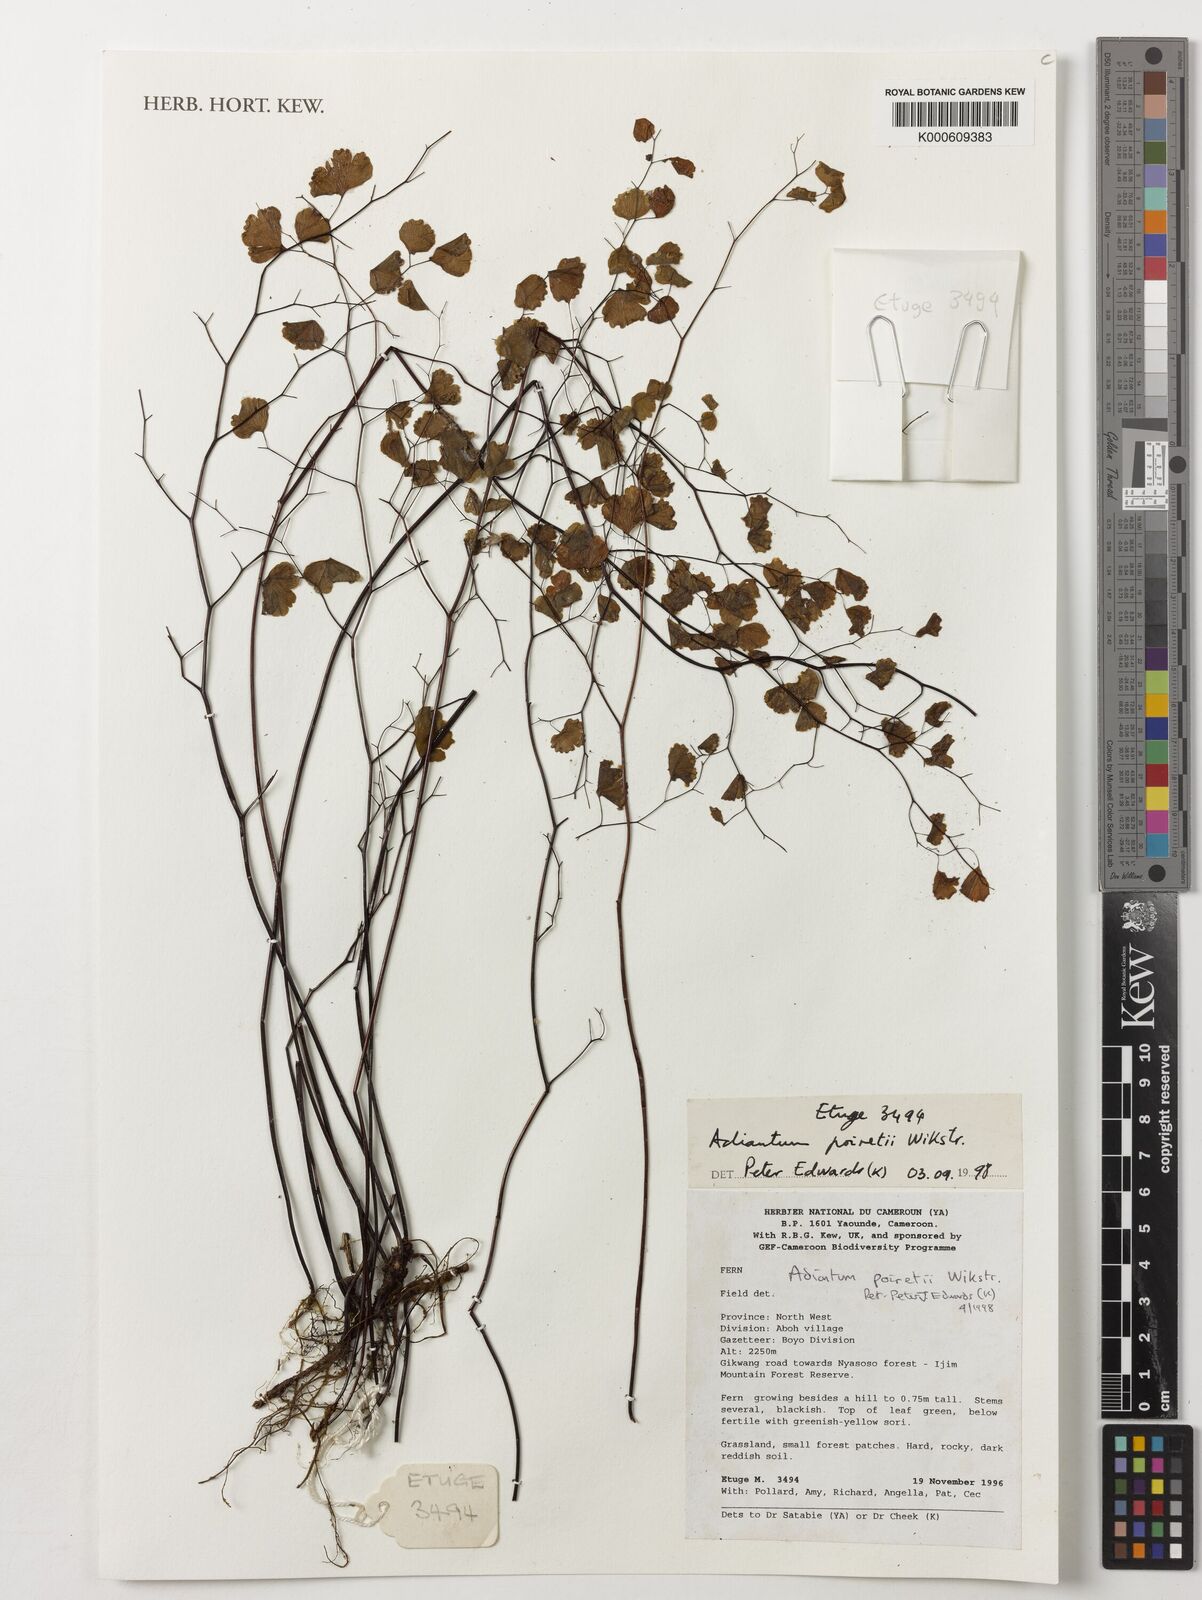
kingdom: Plantae
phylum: Tracheophyta
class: Polypodiopsida
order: Polypodiales
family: Pteridaceae
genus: Adiantum
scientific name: Adiantum poiretii
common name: Mexican maidenhair
